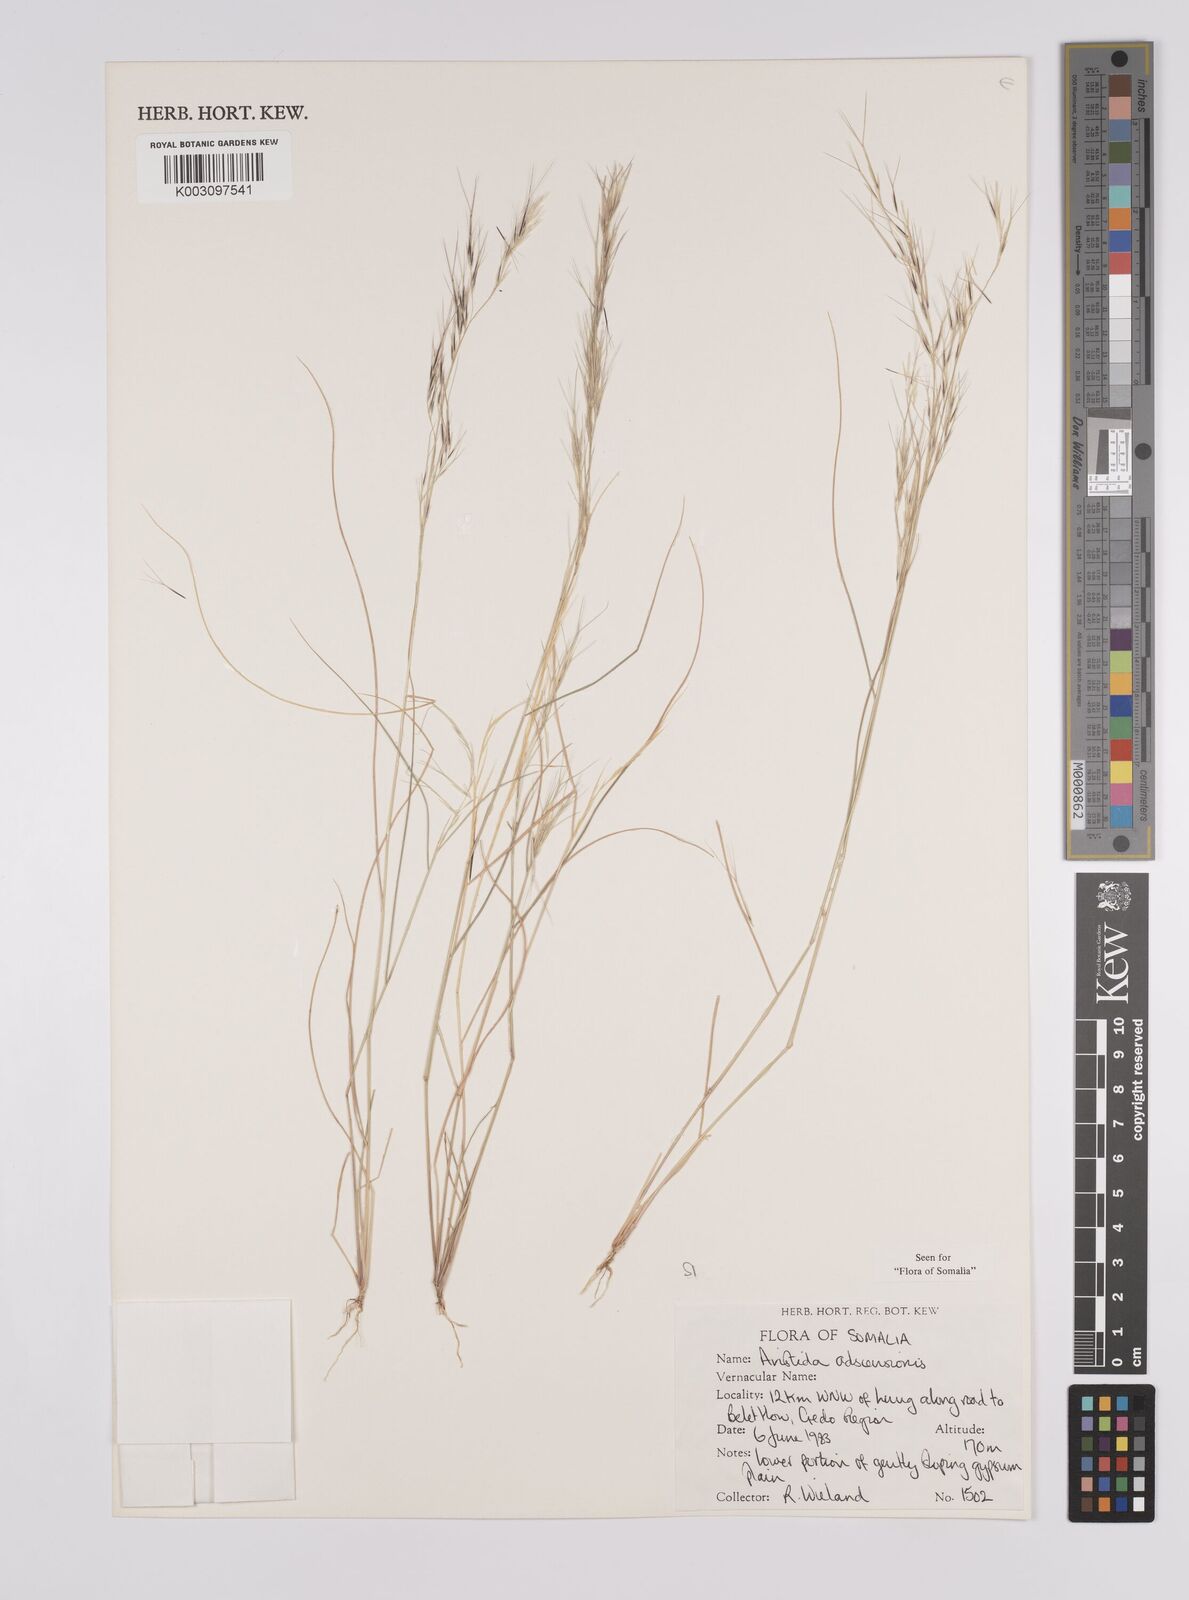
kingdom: Plantae
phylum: Tracheophyta
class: Liliopsida
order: Poales
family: Poaceae
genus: Aristida
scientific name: Aristida laevis
